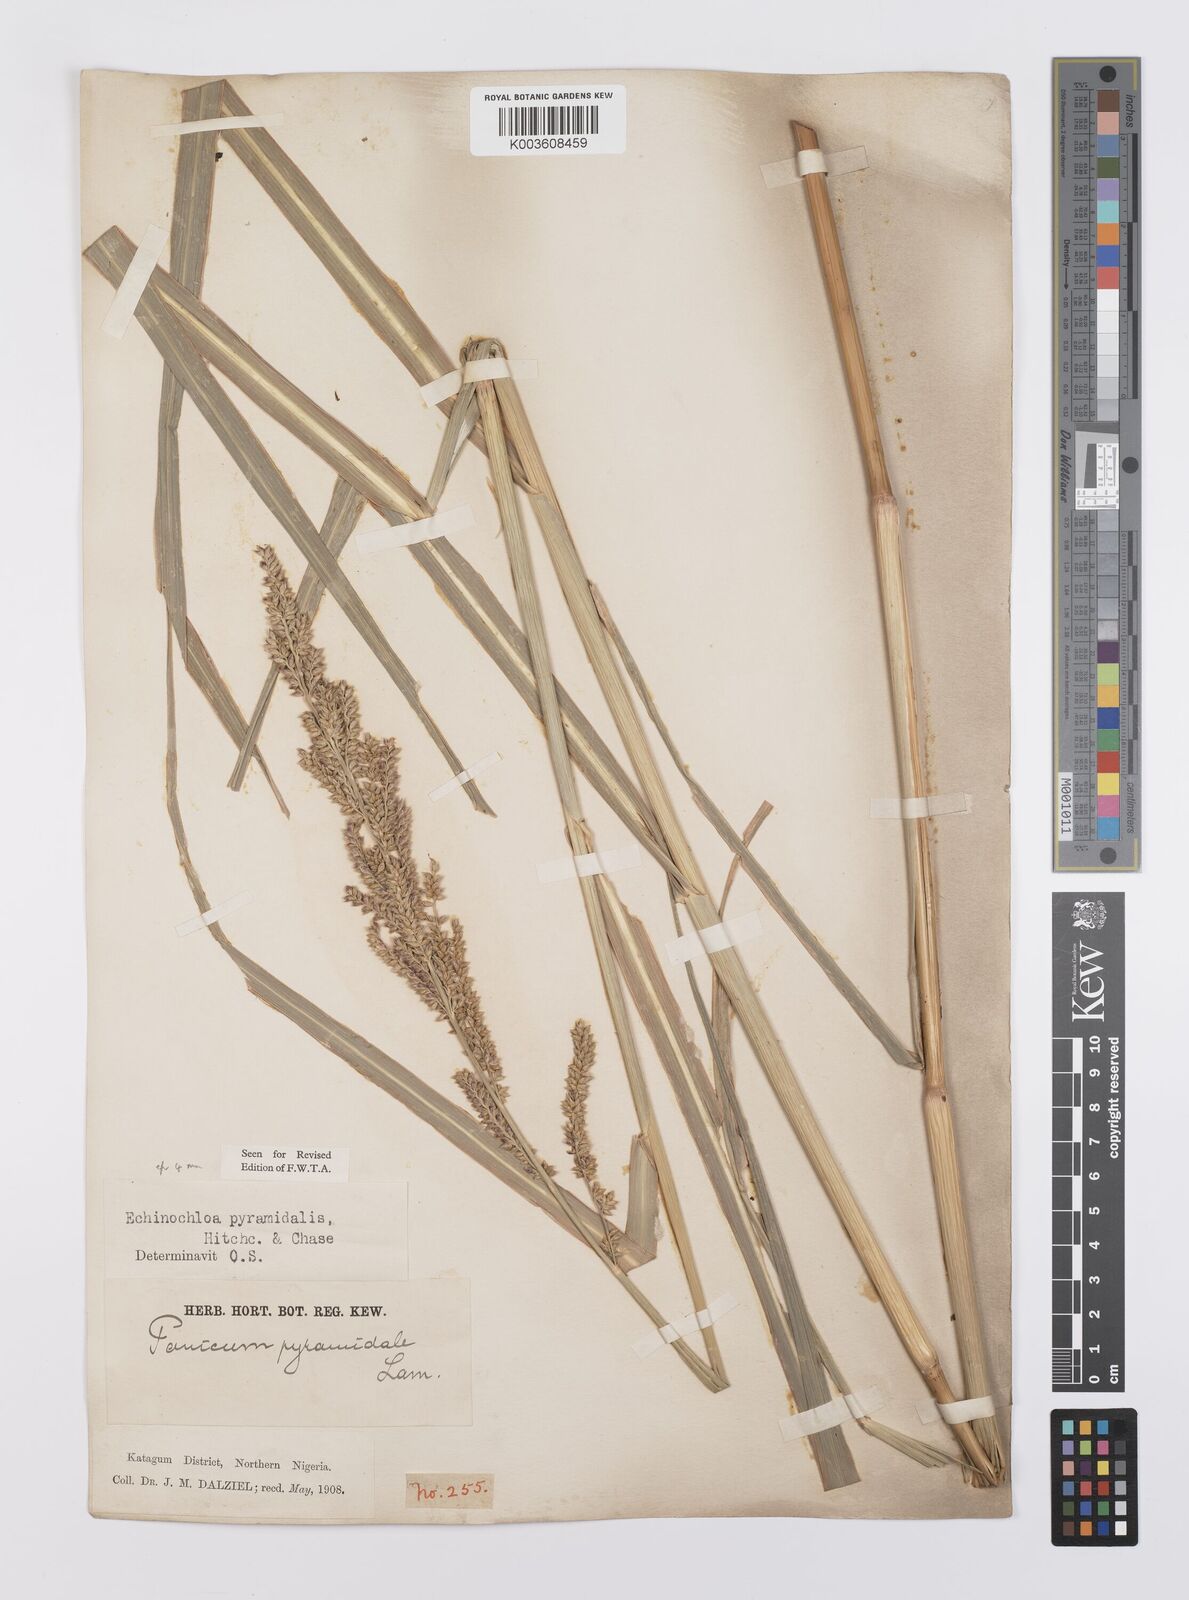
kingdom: Plantae
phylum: Tracheophyta
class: Liliopsida
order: Poales
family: Poaceae
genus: Echinochloa
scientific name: Echinochloa pyramidalis
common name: Antelope grass
